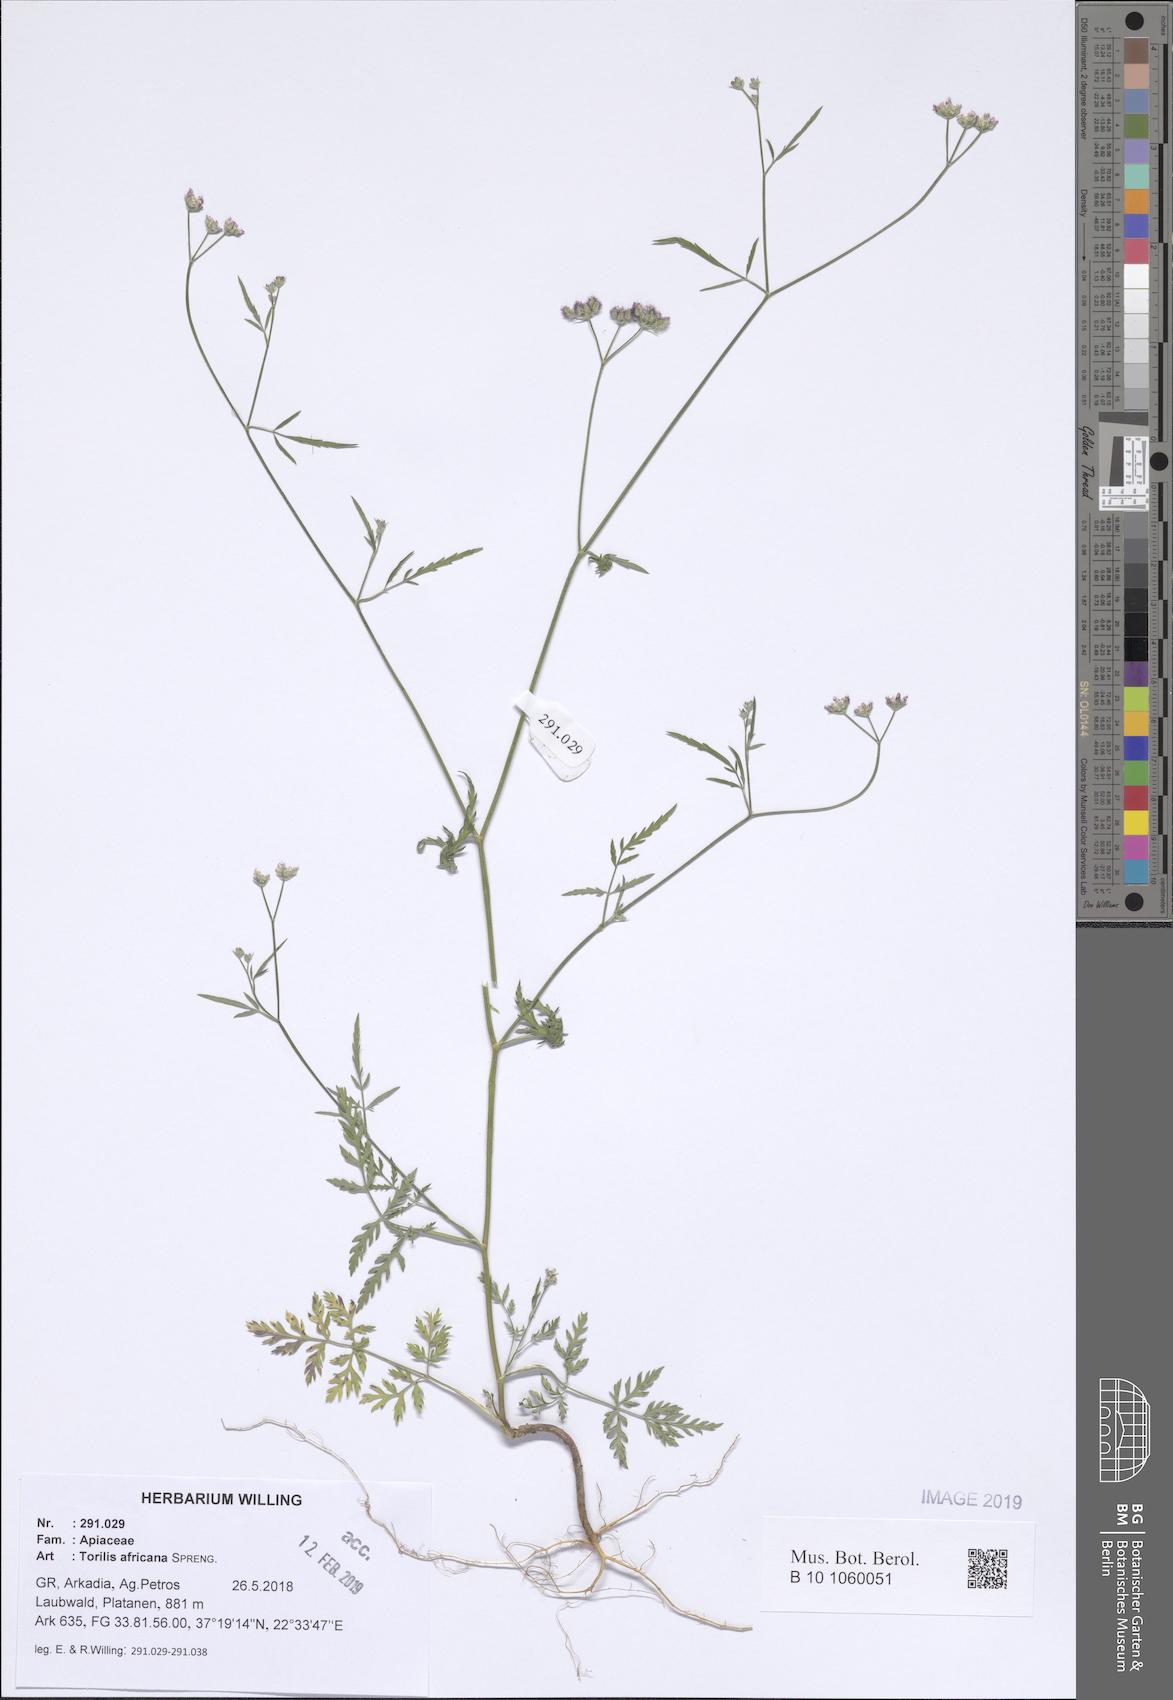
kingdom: Plantae
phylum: Tracheophyta
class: Magnoliopsida
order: Apiales
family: Apiaceae
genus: Torilis
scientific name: Torilis africana
